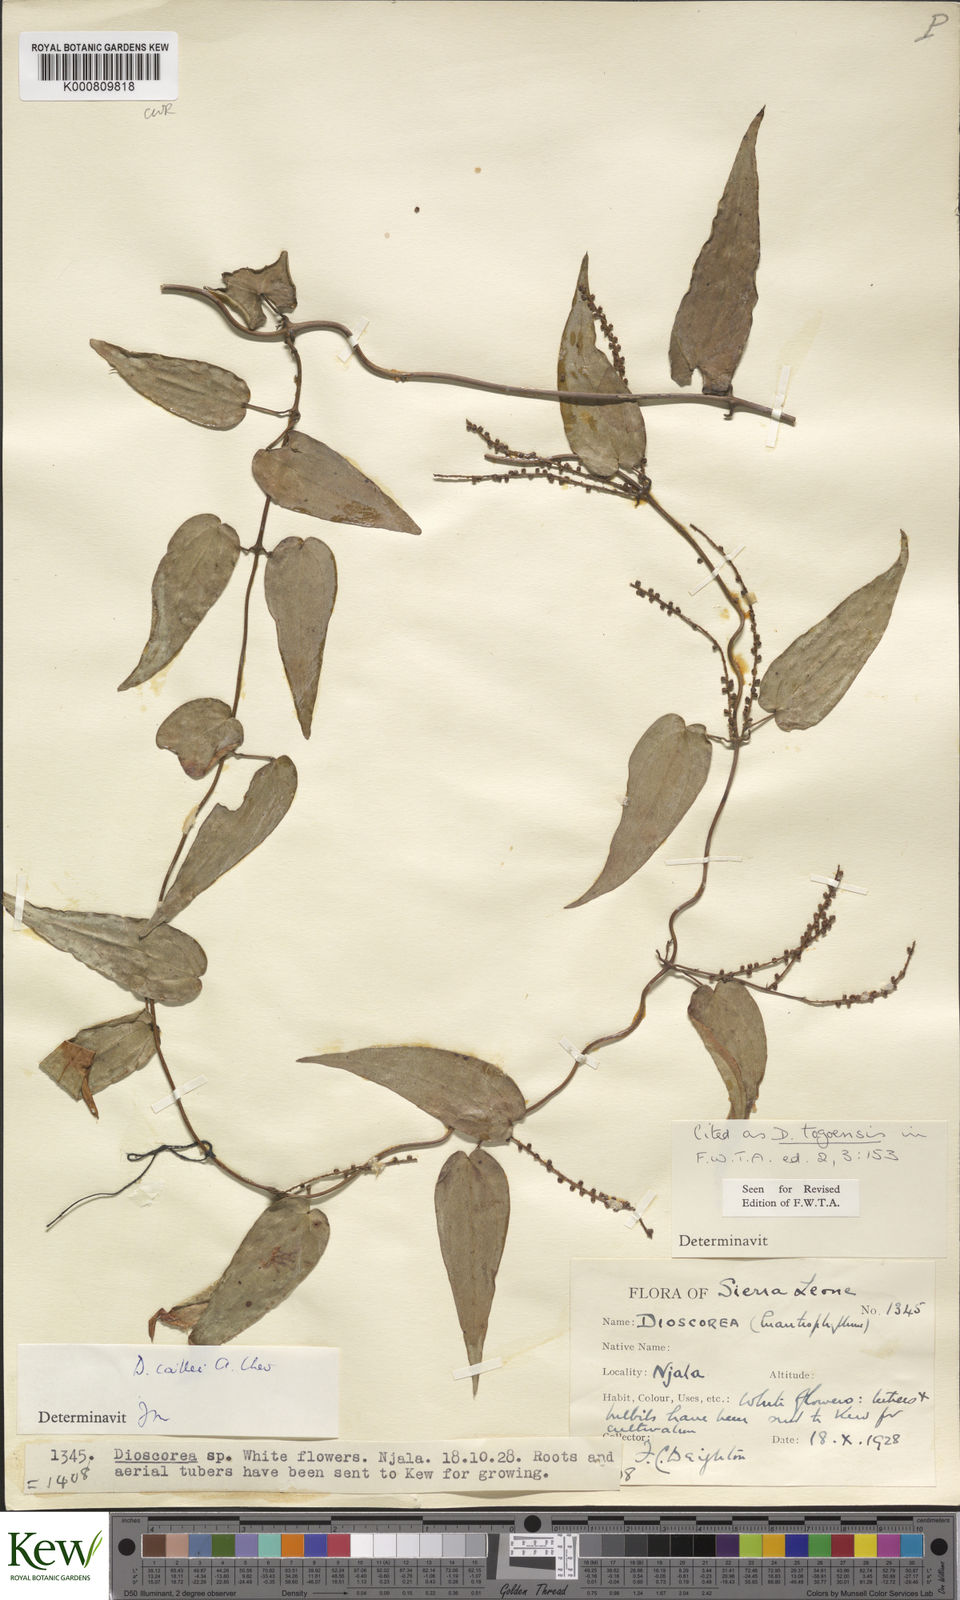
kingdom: Plantae
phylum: Tracheophyta
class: Liliopsida
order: Dioscoreales
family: Dioscoreaceae
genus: Dioscorea
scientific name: Dioscorea togoensis
